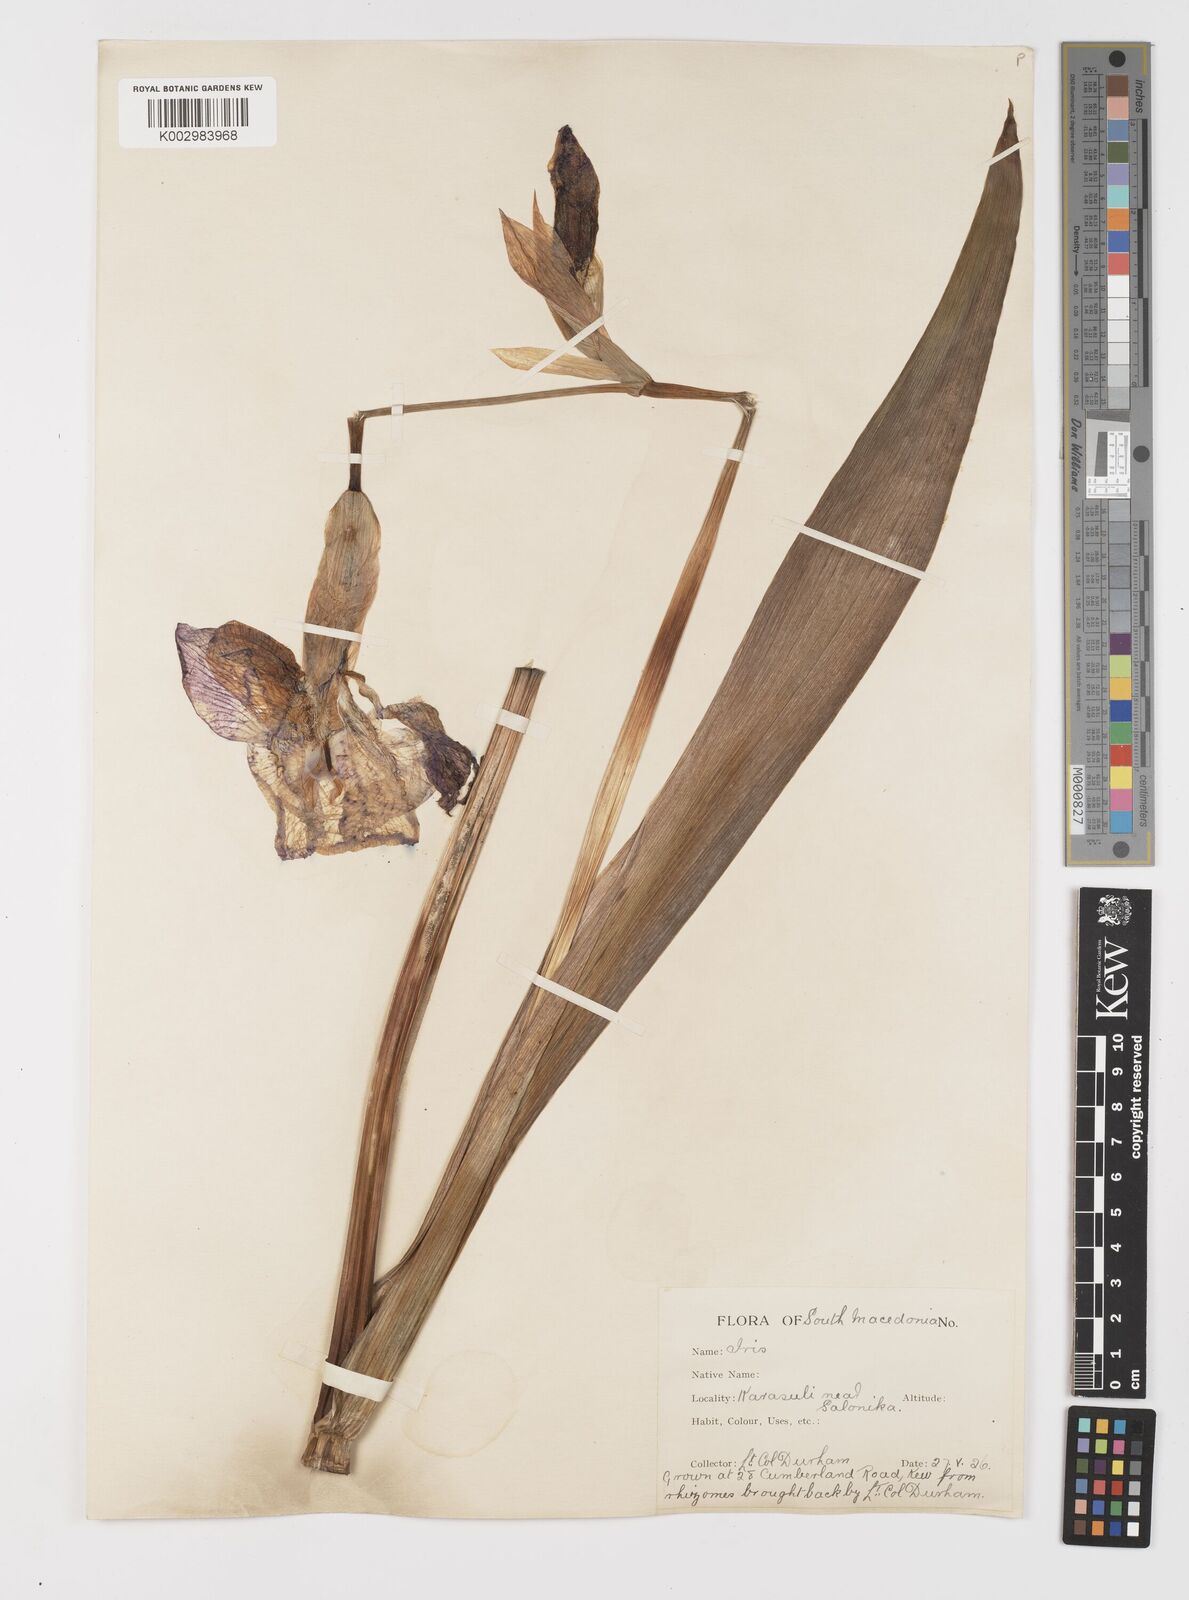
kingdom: Plantae
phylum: Tracheophyta
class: Liliopsida
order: Asparagales
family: Iridaceae
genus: Iris
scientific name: Iris germanica
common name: German iris
